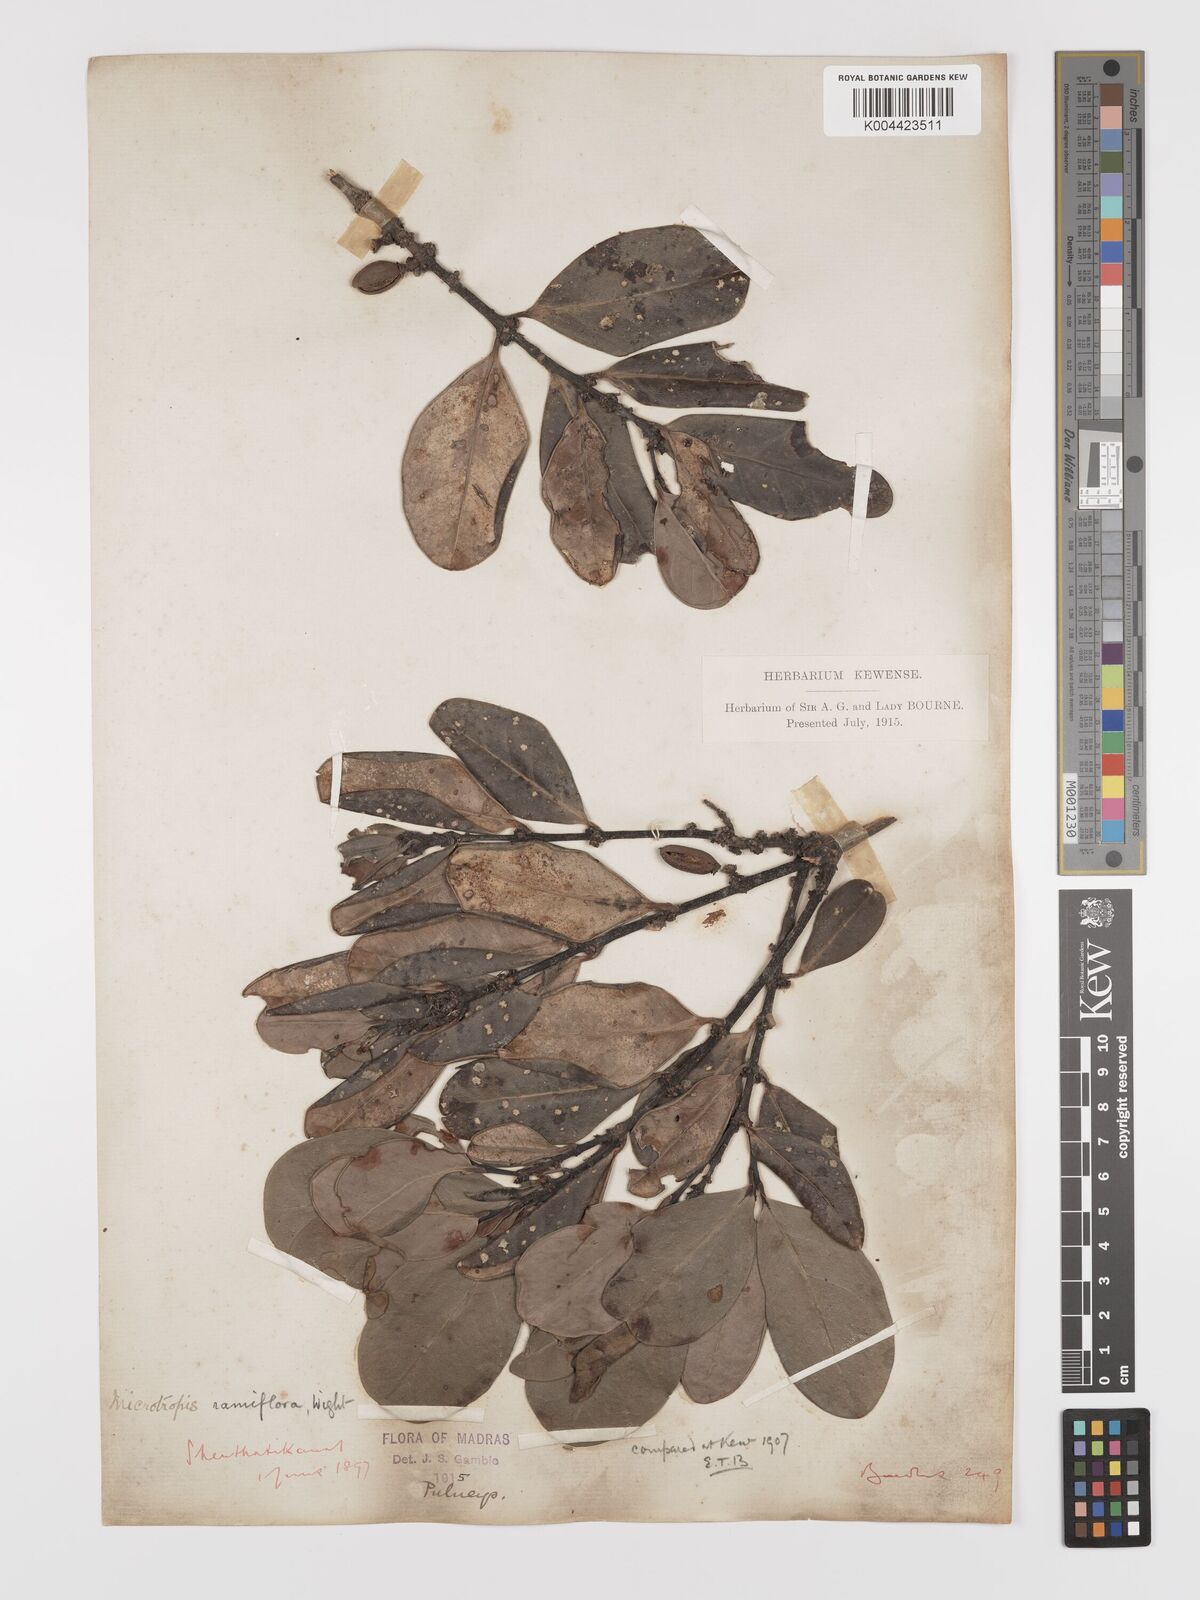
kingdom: Plantae
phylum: Tracheophyta
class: Magnoliopsida
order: Celastrales
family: Celastraceae
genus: Microtropis
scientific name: Microtropis ramiflora
